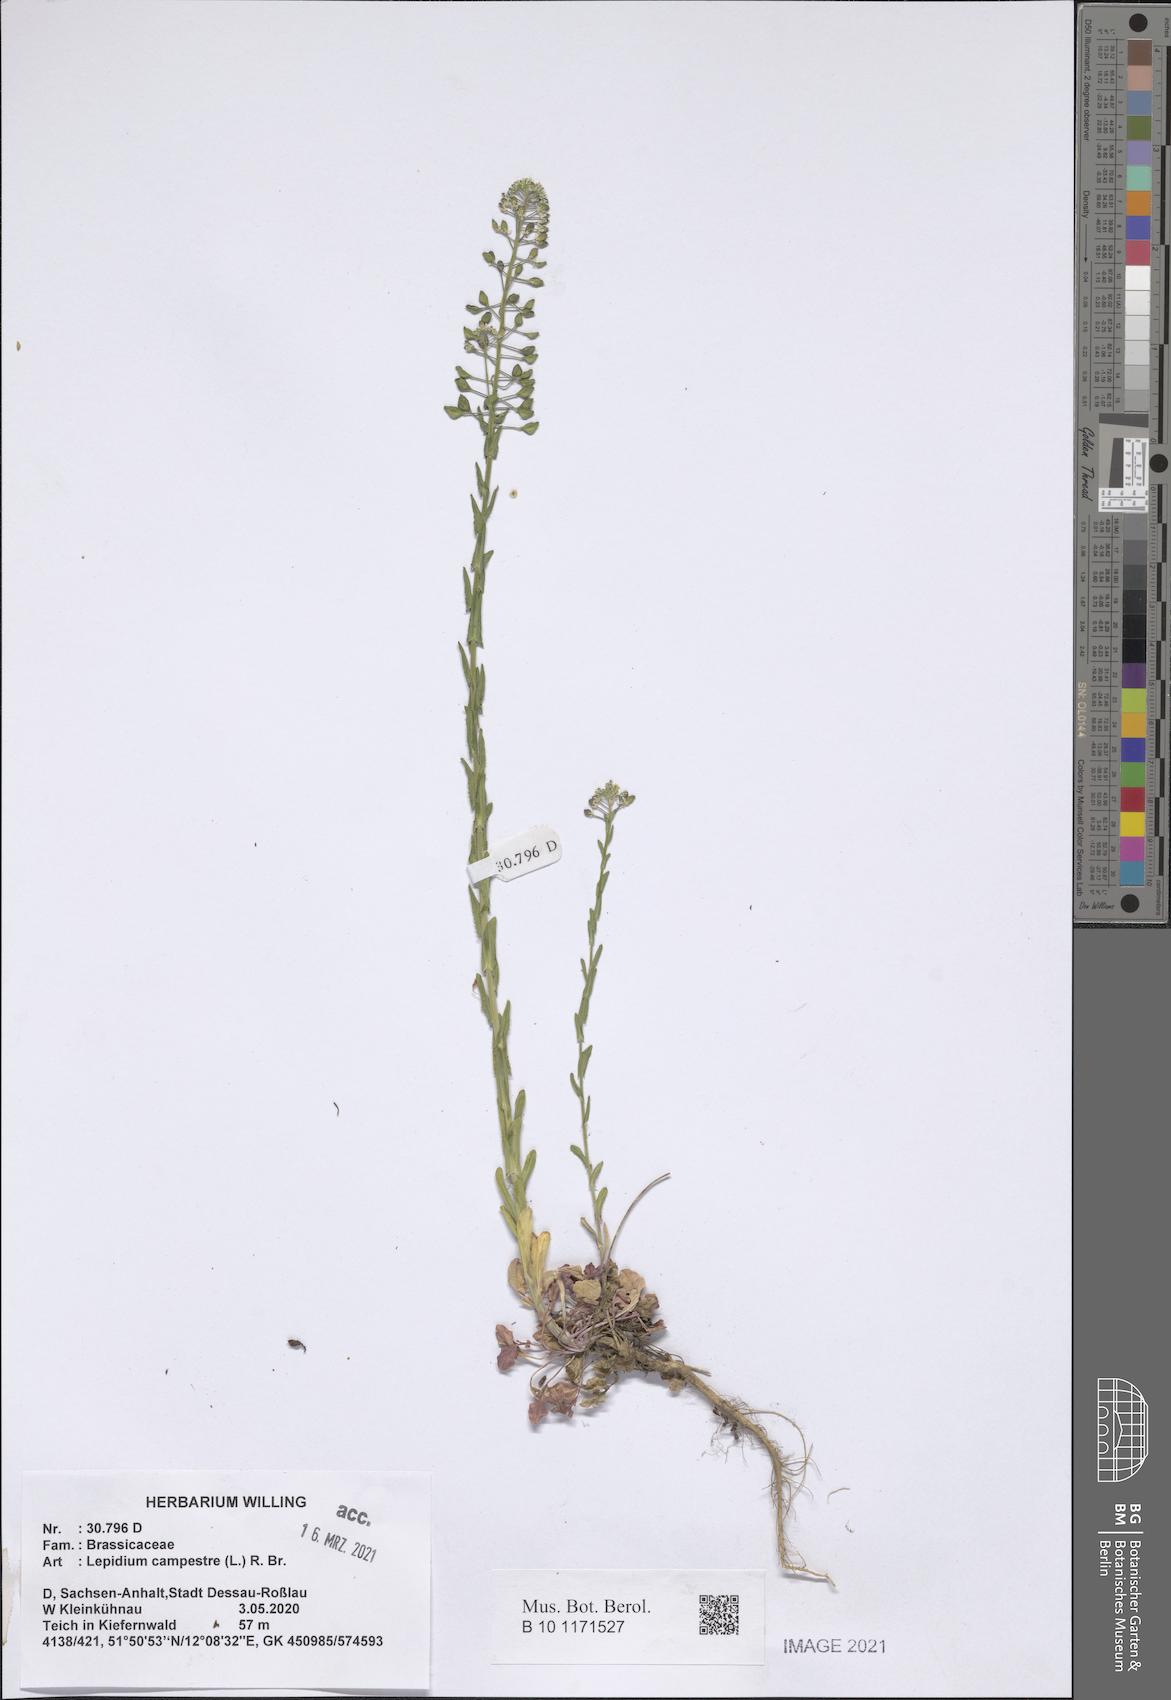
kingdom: Plantae
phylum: Tracheophyta
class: Magnoliopsida
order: Brassicales
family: Brassicaceae
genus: Lepidium
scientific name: Lepidium campestre
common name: Field pepperwort
